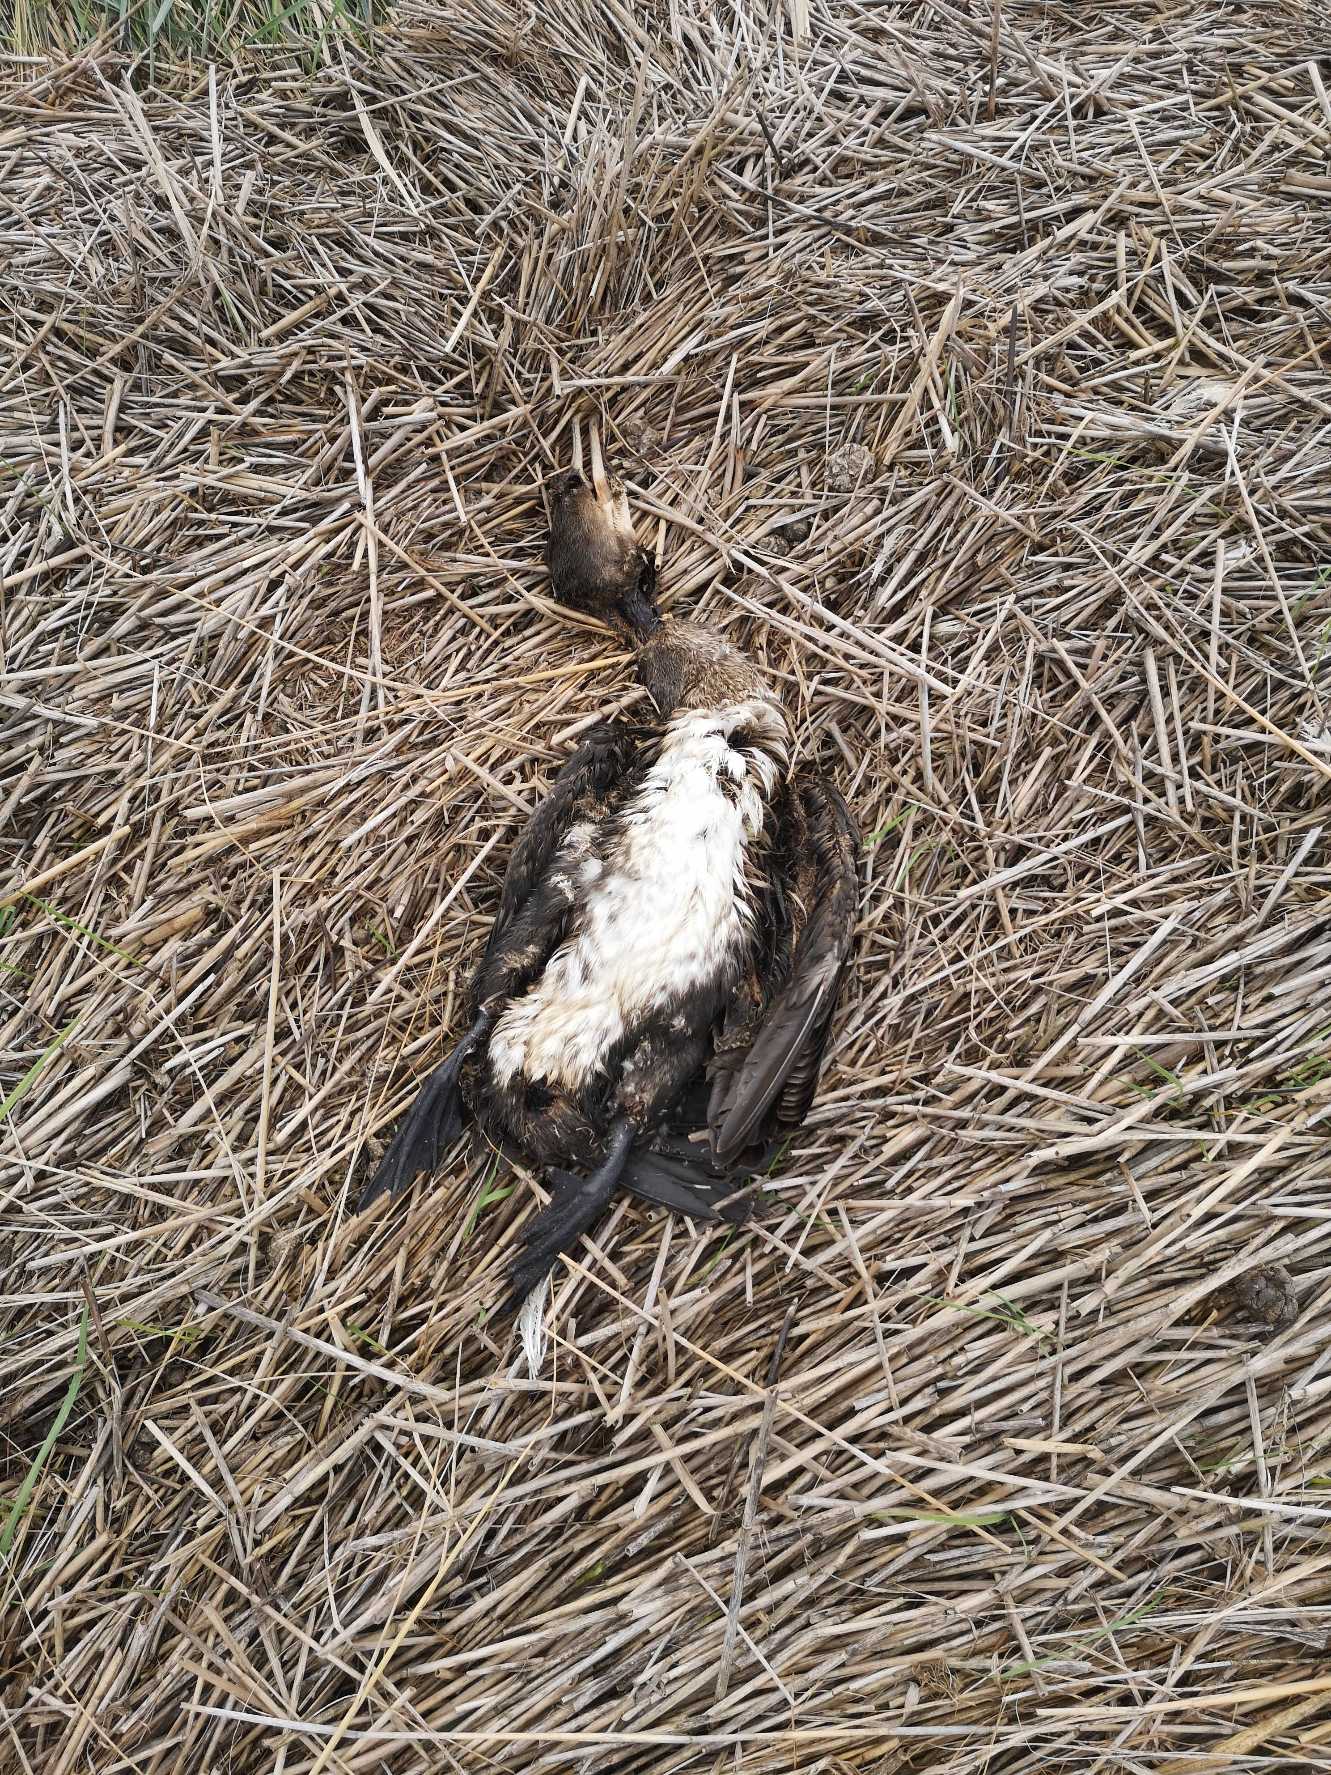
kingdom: Animalia
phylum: Chordata
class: Aves
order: Suliformes
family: Phalacrocoracidae
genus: Phalacrocorax
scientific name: Phalacrocorax carbo
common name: Skarv
